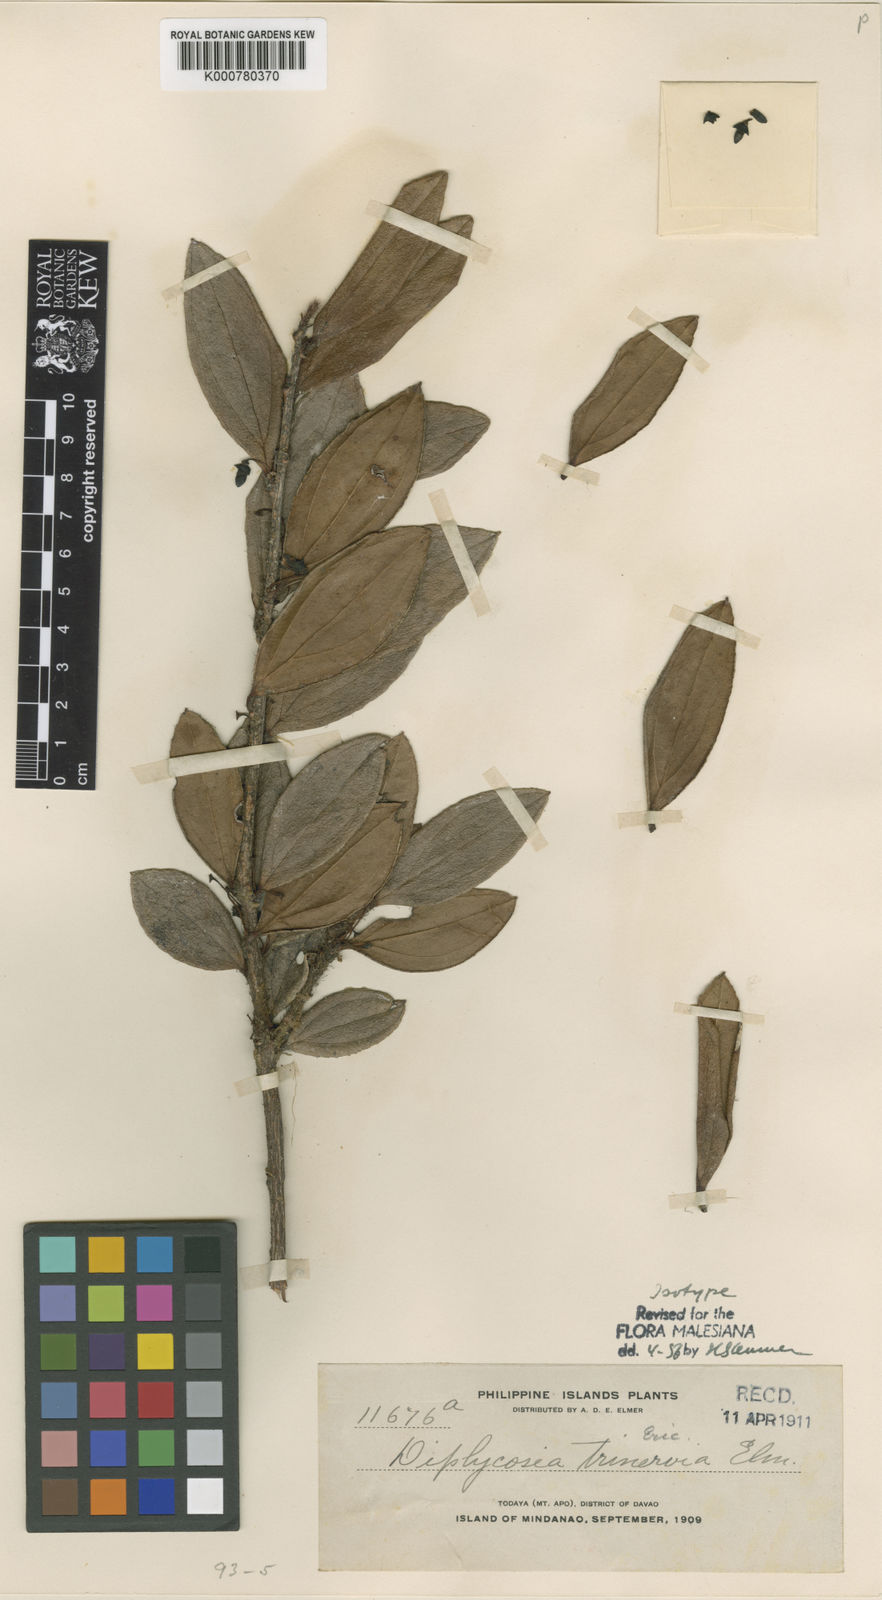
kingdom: Plantae
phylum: Tracheophyta
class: Magnoliopsida
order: Ericales
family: Ericaceae
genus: Gaultheria
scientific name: Gaultheria trinervia
